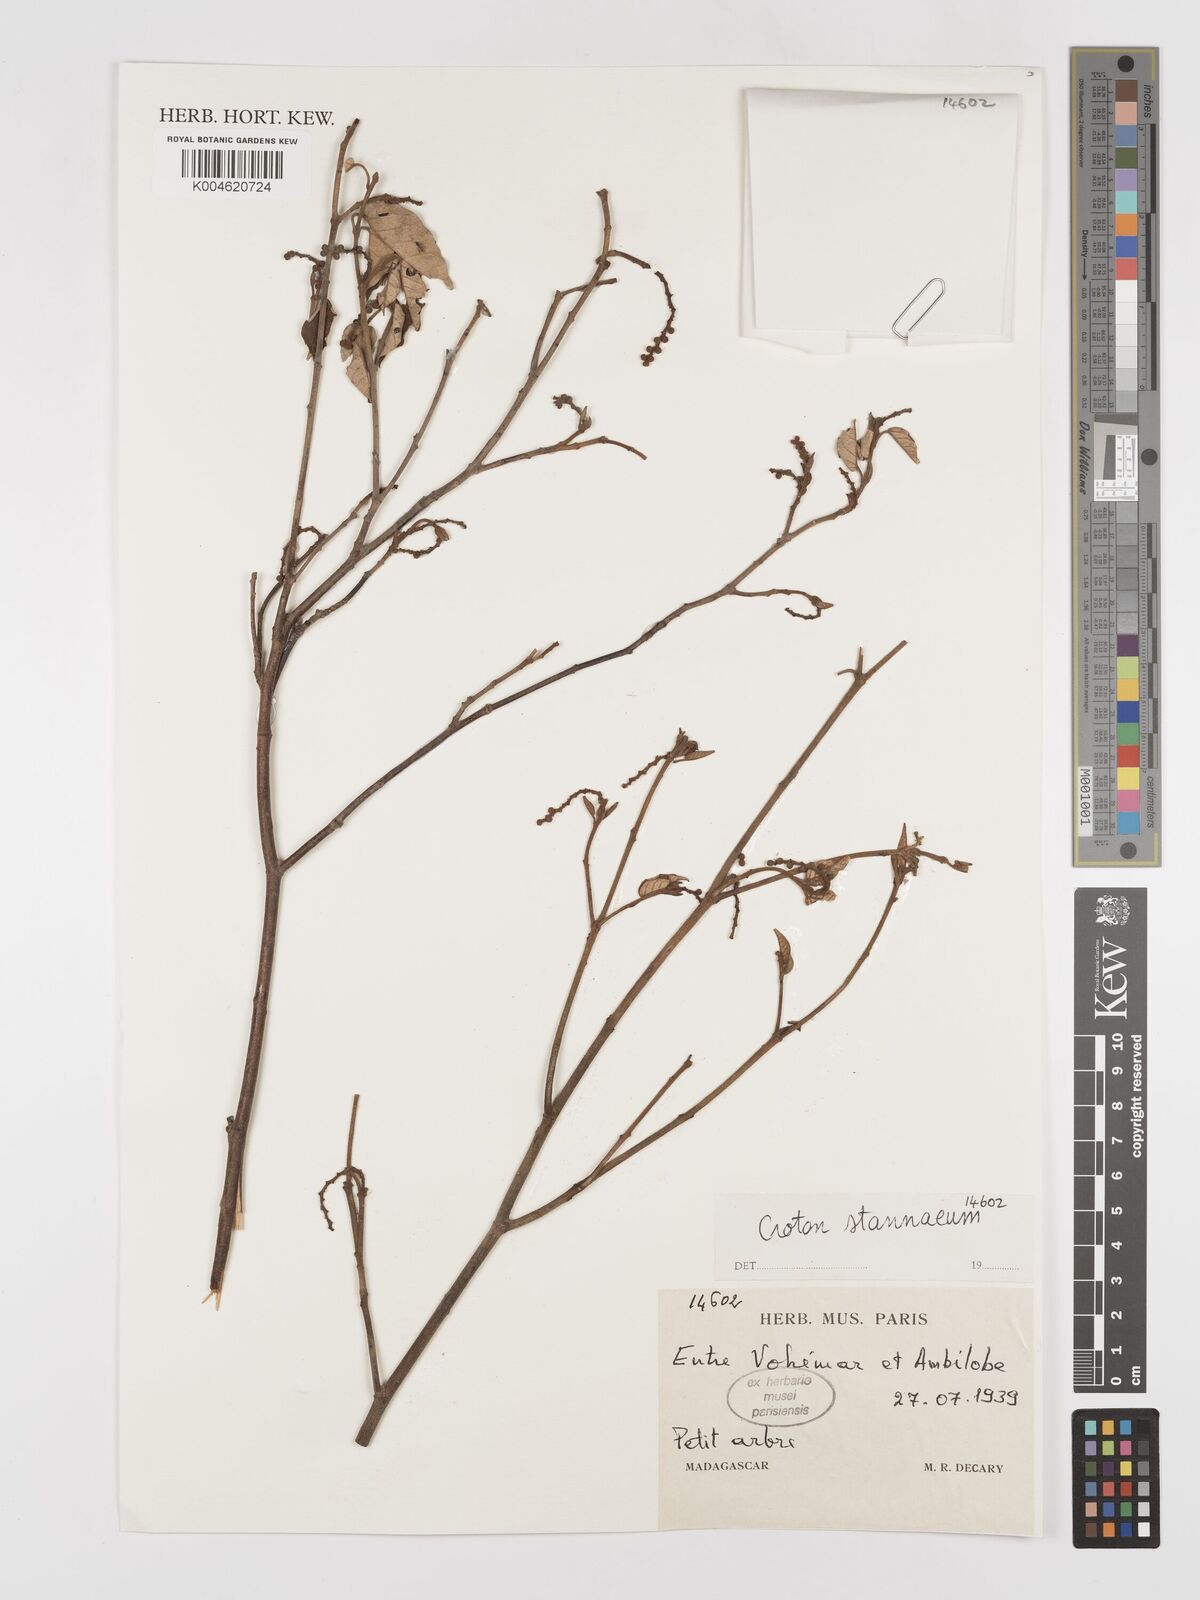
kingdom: Plantae
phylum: Tracheophyta
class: Magnoliopsida
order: Malpighiales
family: Euphorbiaceae
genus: Croton
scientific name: Croton
